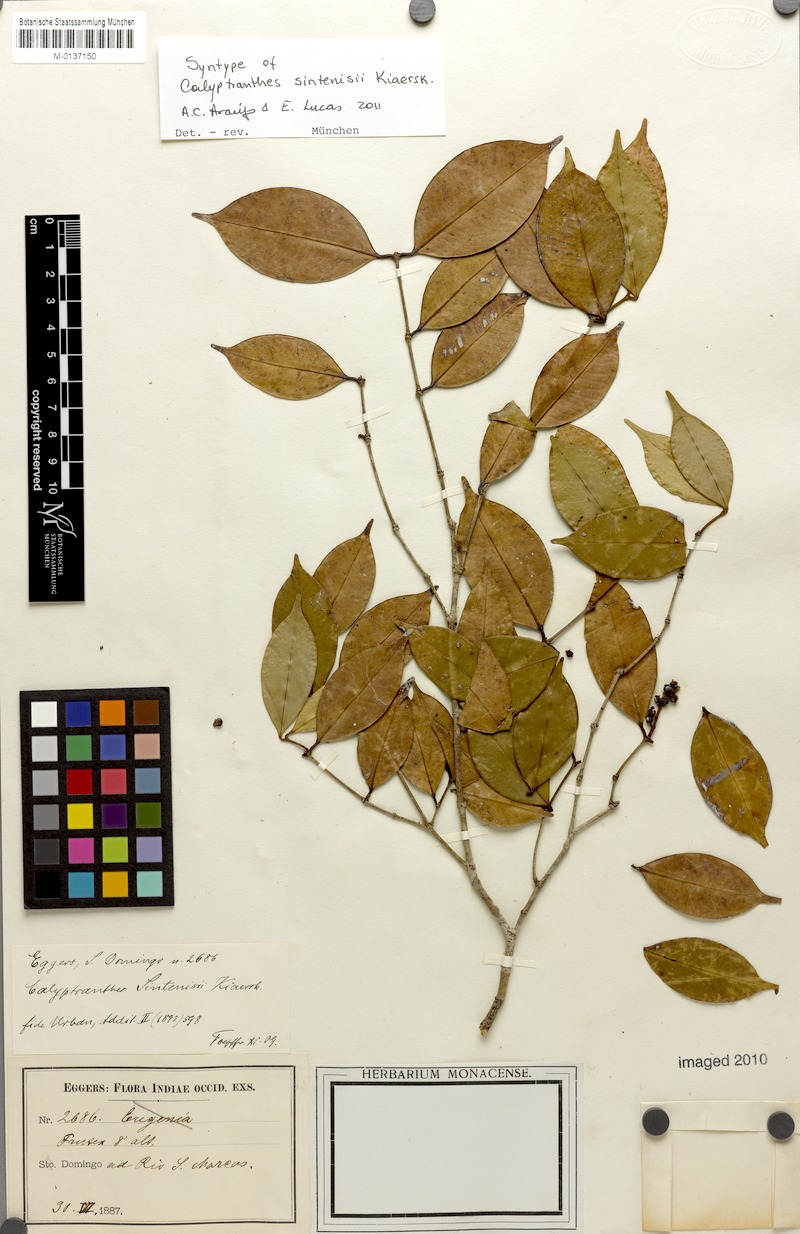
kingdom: Plantae
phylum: Tracheophyta
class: Magnoliopsida
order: Myrtales
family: Myrtaceae
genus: Myrcia
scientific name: Myrcia neosintenisii
